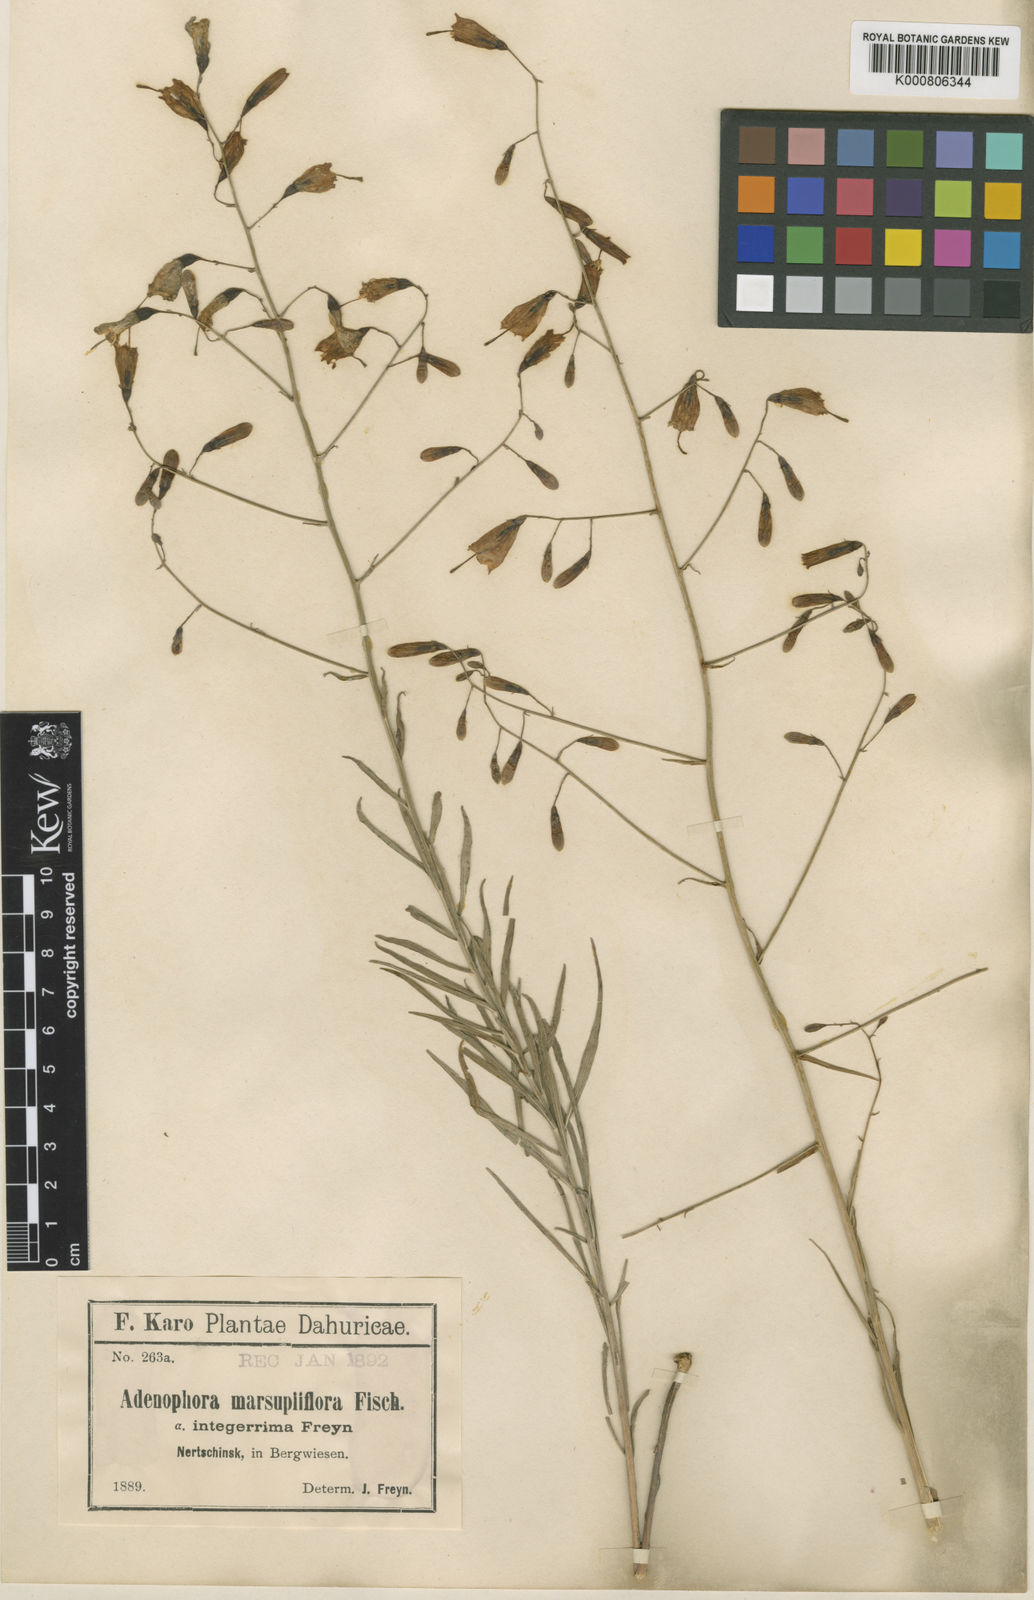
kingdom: Plantae
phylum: Tracheophyta
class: Magnoliopsida
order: Asterales
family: Campanulaceae
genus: Adenophora
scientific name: Adenophora stenanthina
